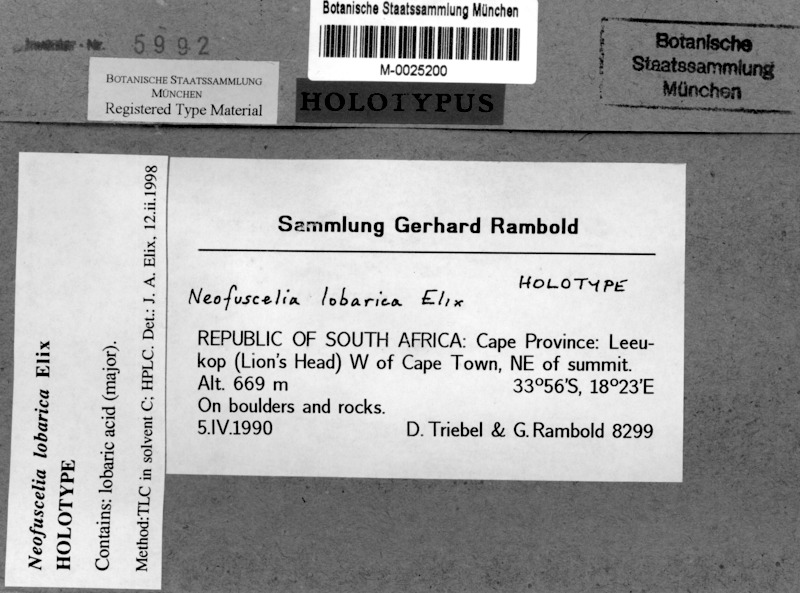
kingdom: Fungi
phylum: Ascomycota
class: Lecanoromycetes
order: Lecanorales
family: Parmeliaceae
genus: Xanthoparmelia
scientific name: Xanthoparmelia lobarica
